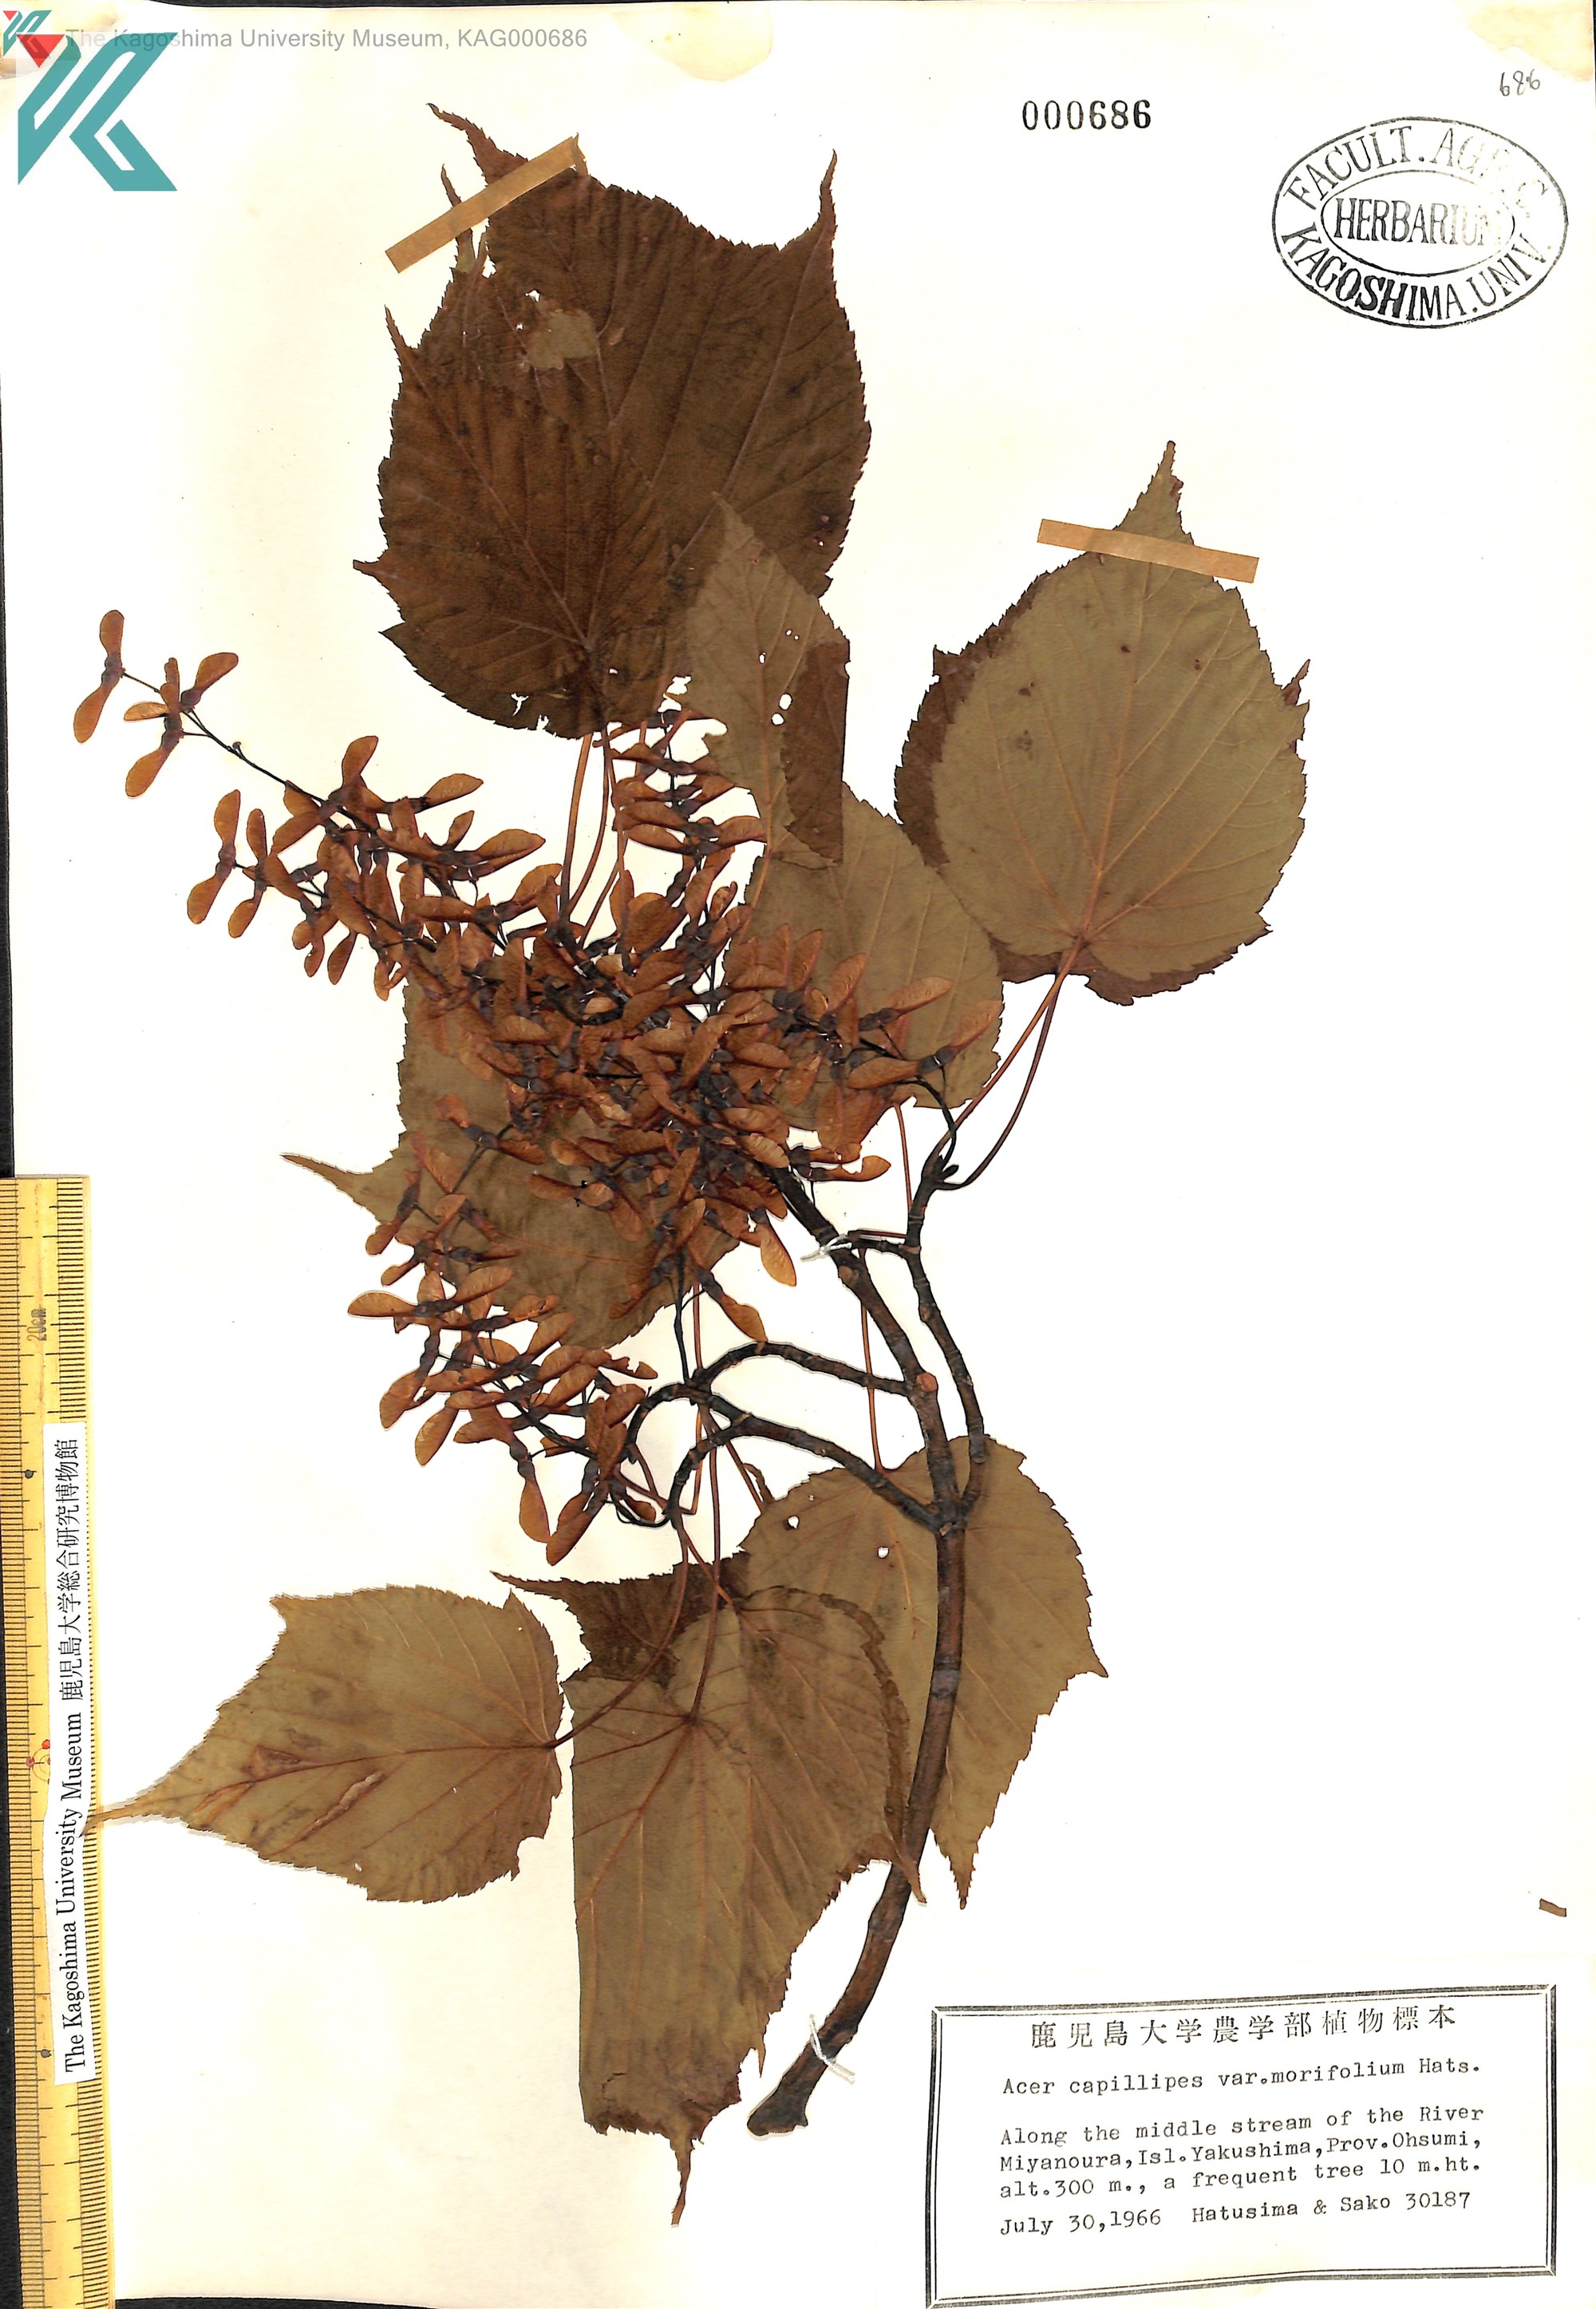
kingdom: Plantae
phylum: Tracheophyta
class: Magnoliopsida
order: Sapindales
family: Sapindaceae
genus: Acer
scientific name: Acer morifolium
